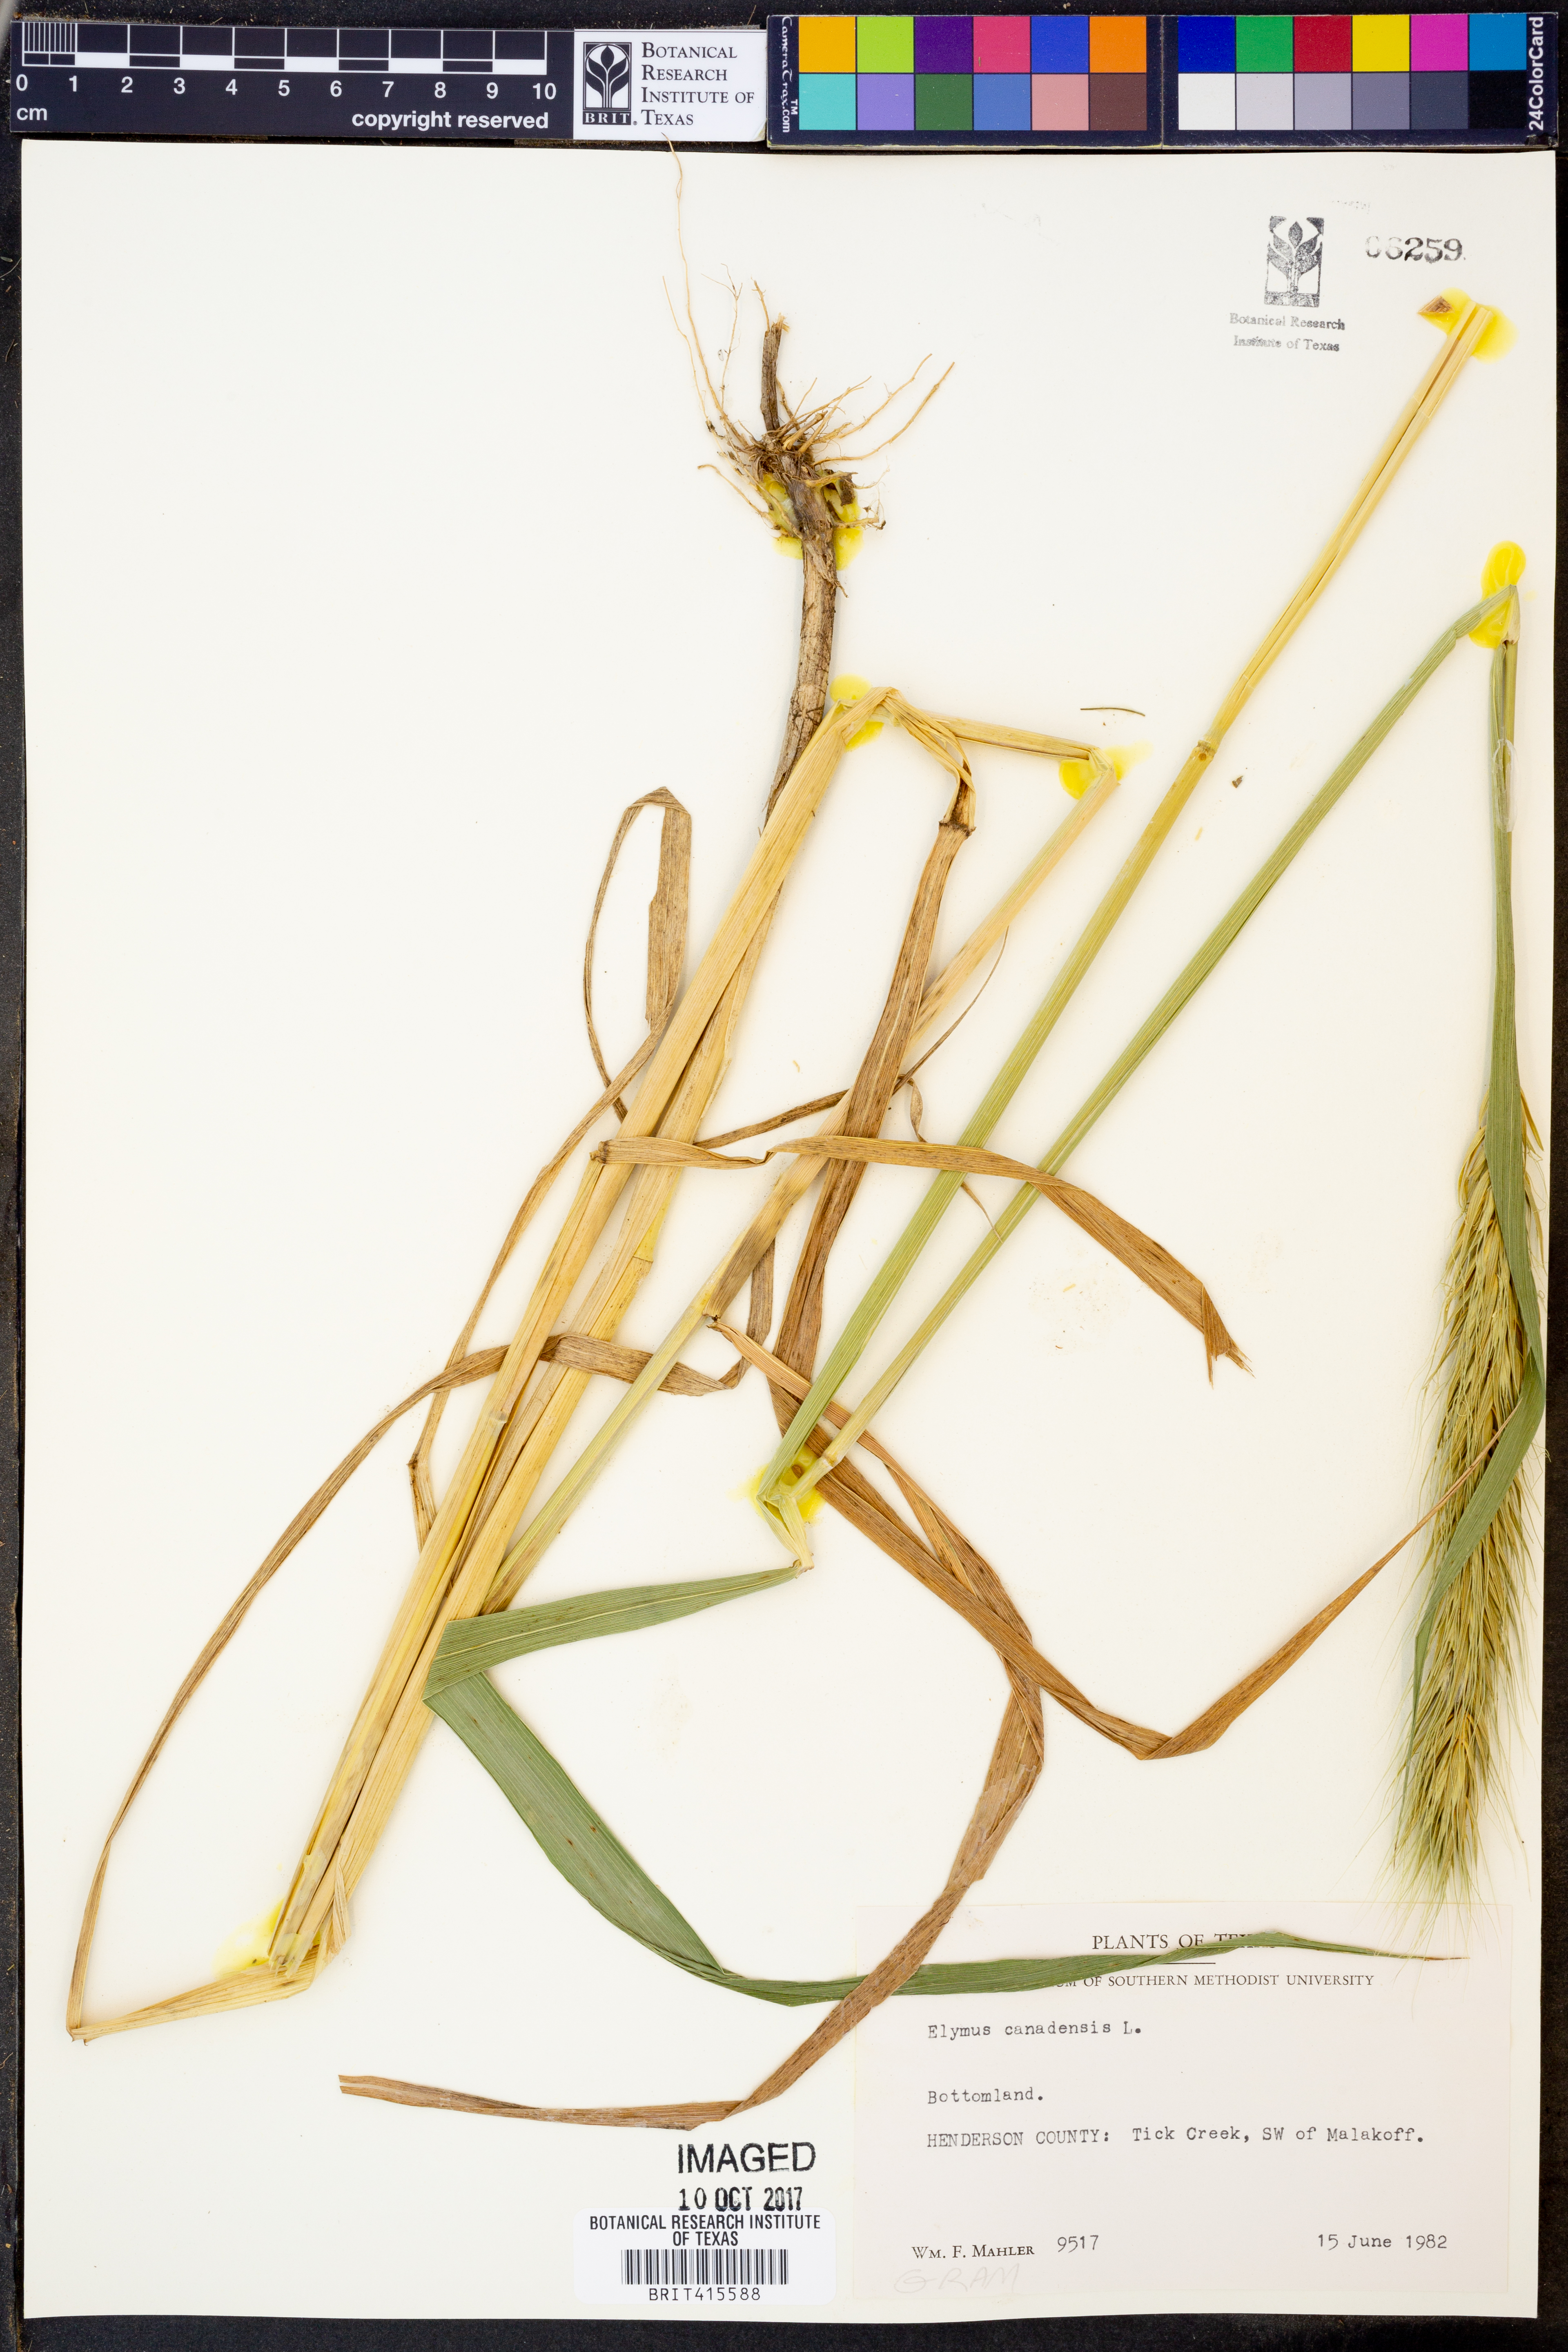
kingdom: Plantae
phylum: Tracheophyta
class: Liliopsida
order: Poales
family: Poaceae
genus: Elymus
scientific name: Elymus canadensis
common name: Canada wild rye
